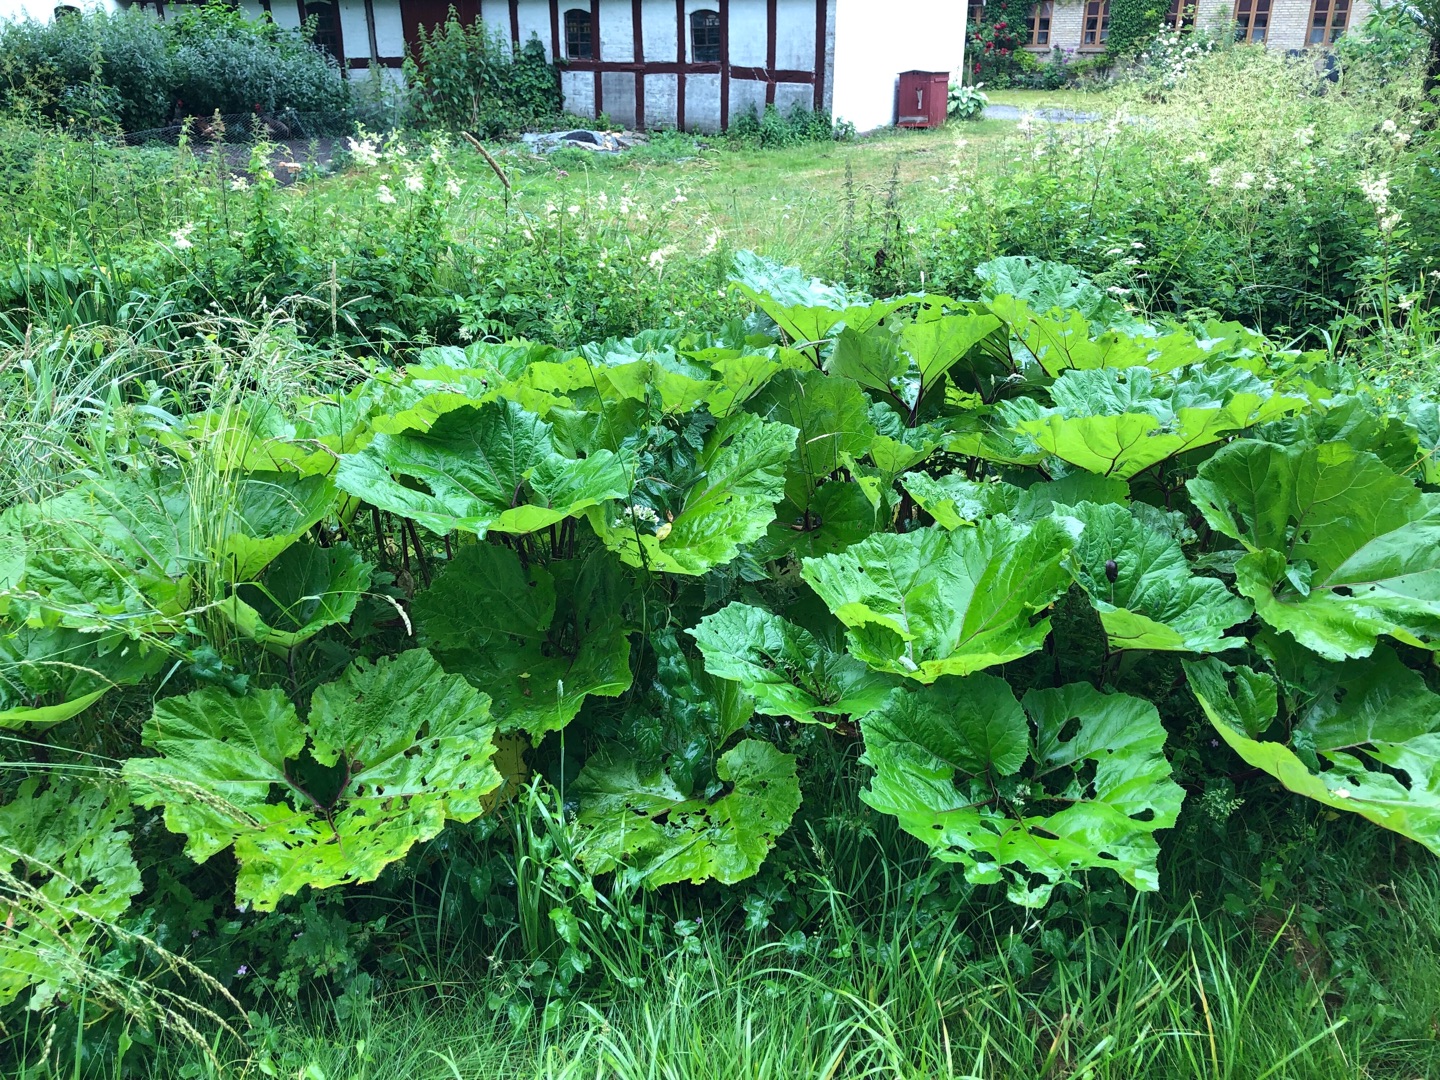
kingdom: Plantae
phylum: Tracheophyta
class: Magnoliopsida
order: Asterales
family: Asteraceae
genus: Petasites
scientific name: Petasites hybridus
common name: Rød hestehov
